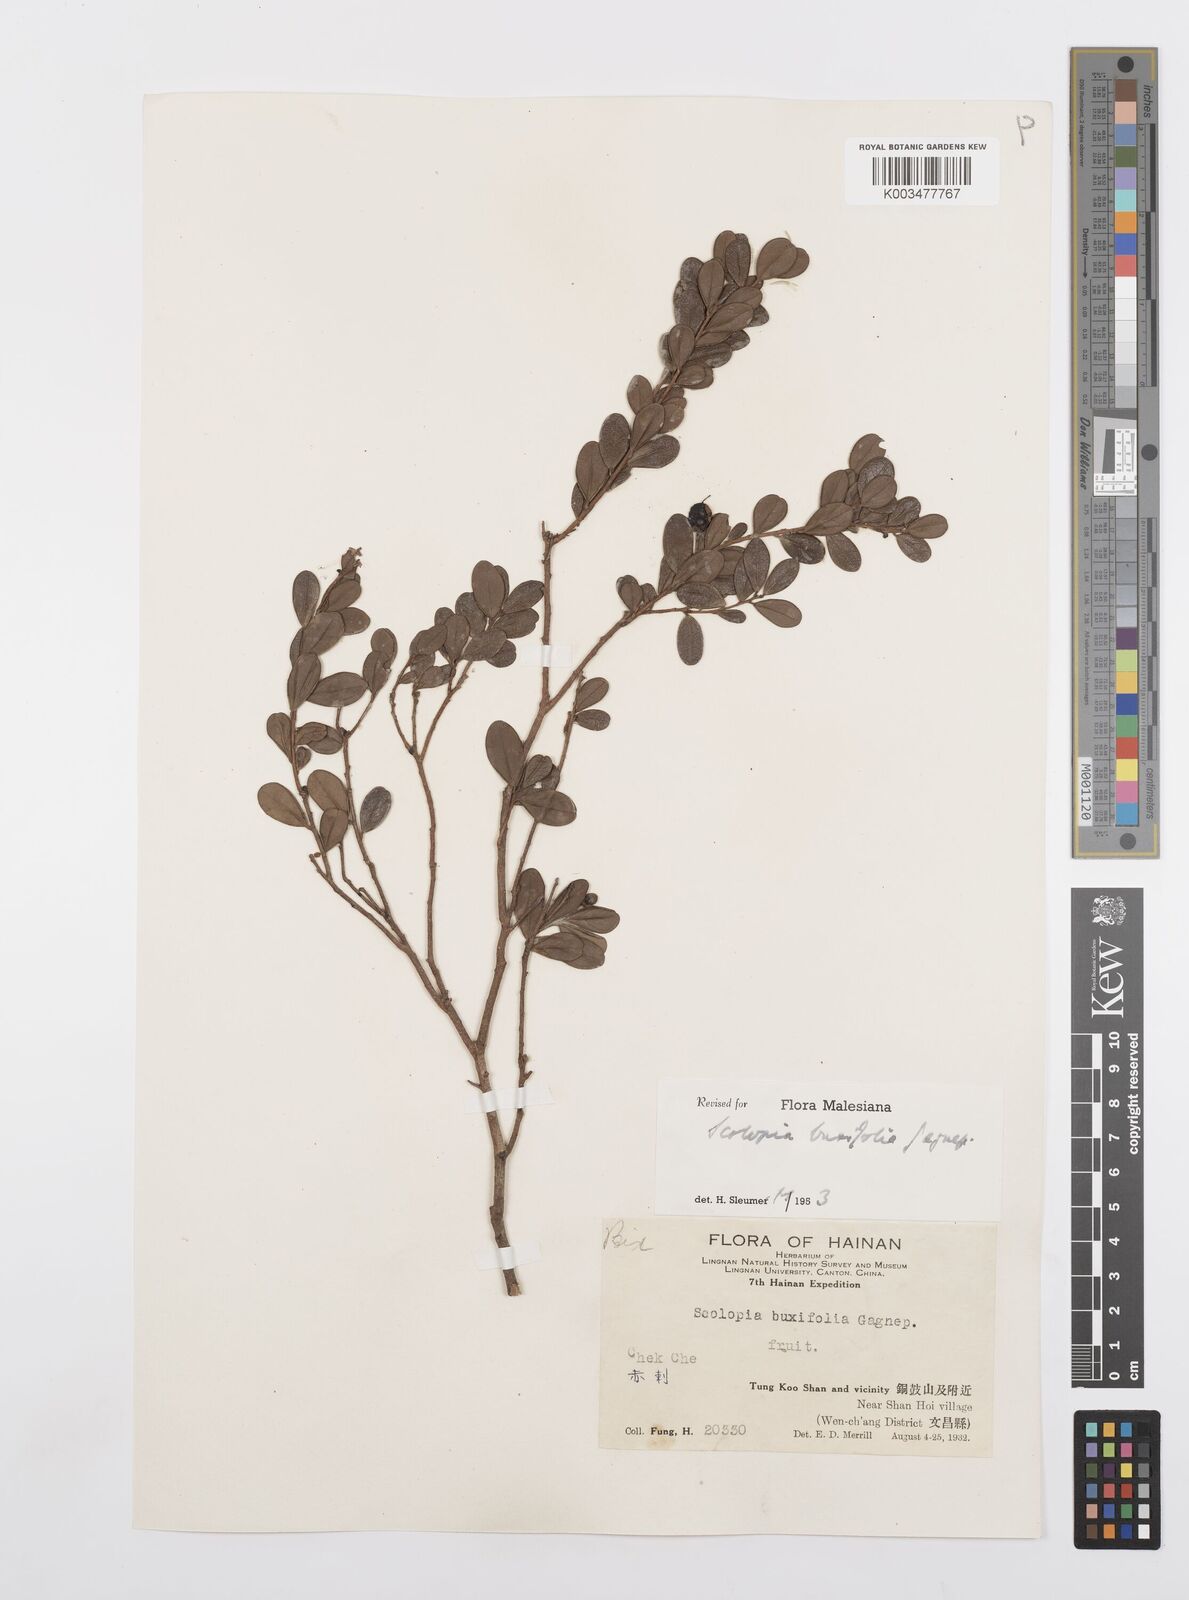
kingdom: Plantae
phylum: Tracheophyta
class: Magnoliopsida
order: Malpighiales
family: Salicaceae
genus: Scolopia
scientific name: Scolopia buxifolia
